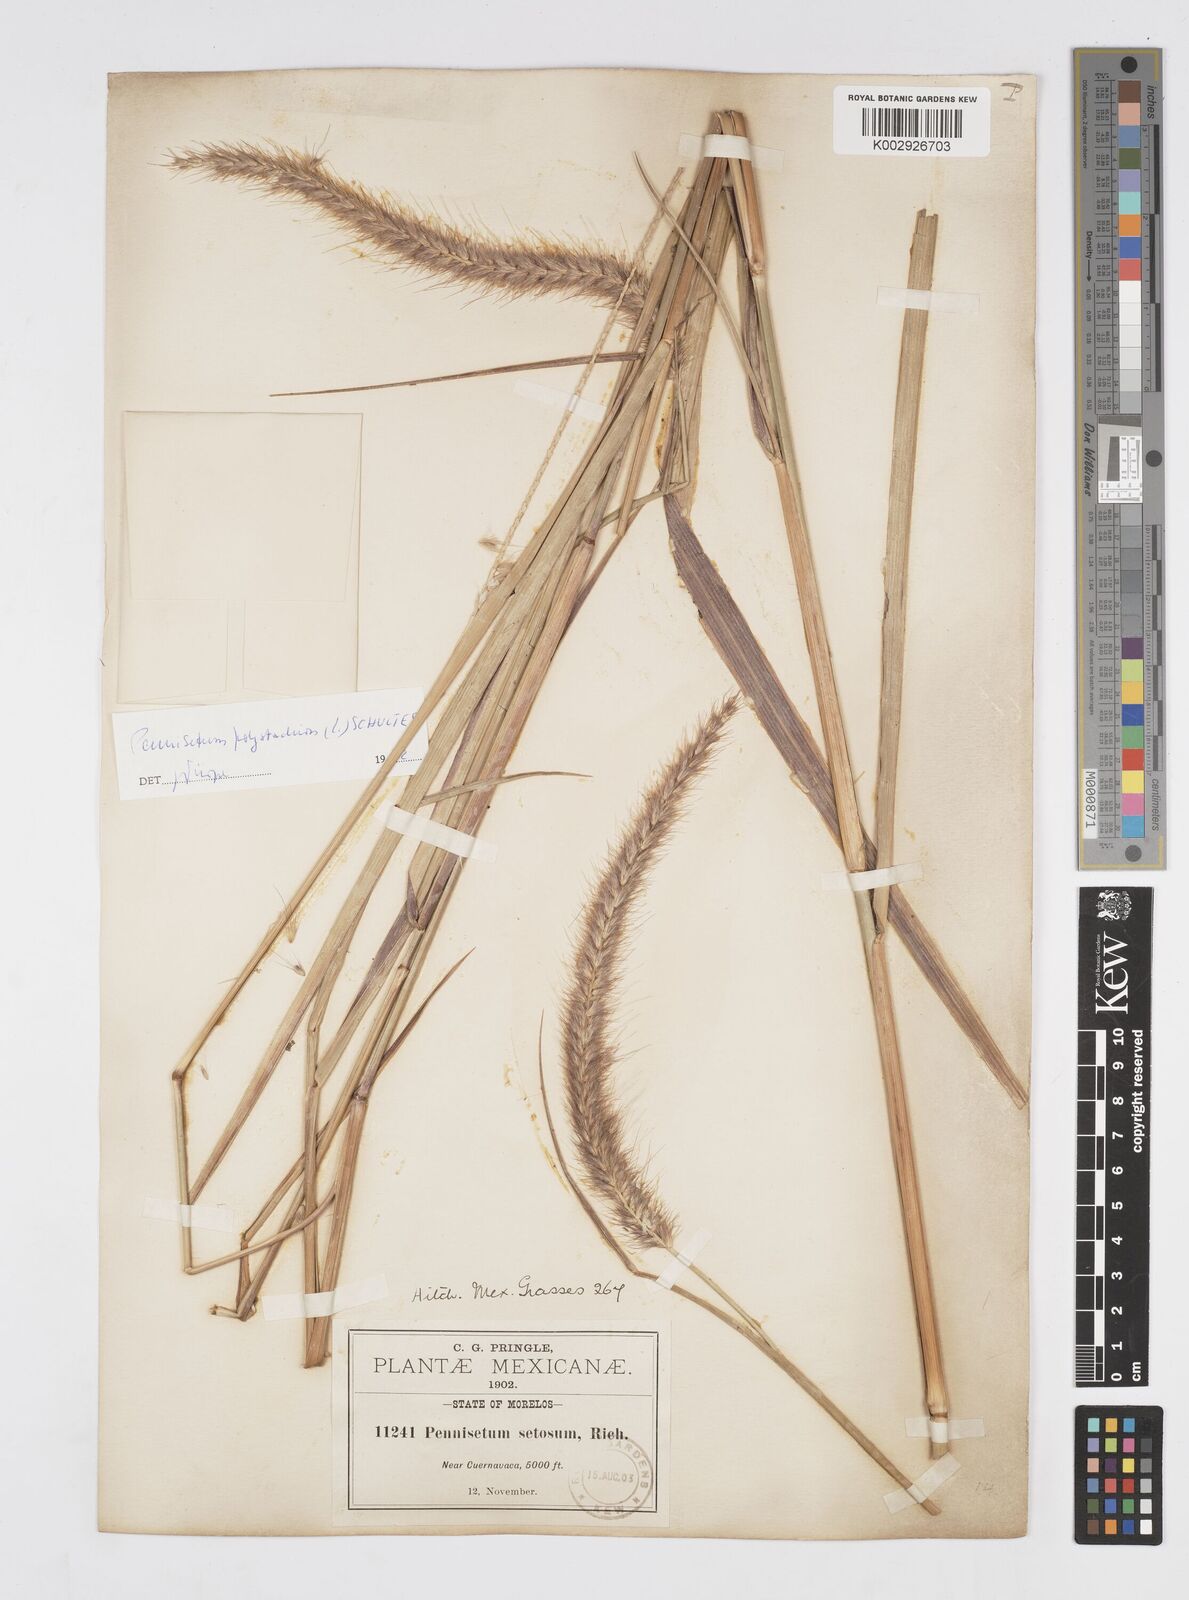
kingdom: Plantae
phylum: Tracheophyta
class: Liliopsida
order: Poales
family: Poaceae
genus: Cenchrus
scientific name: Cenchrus setosus
